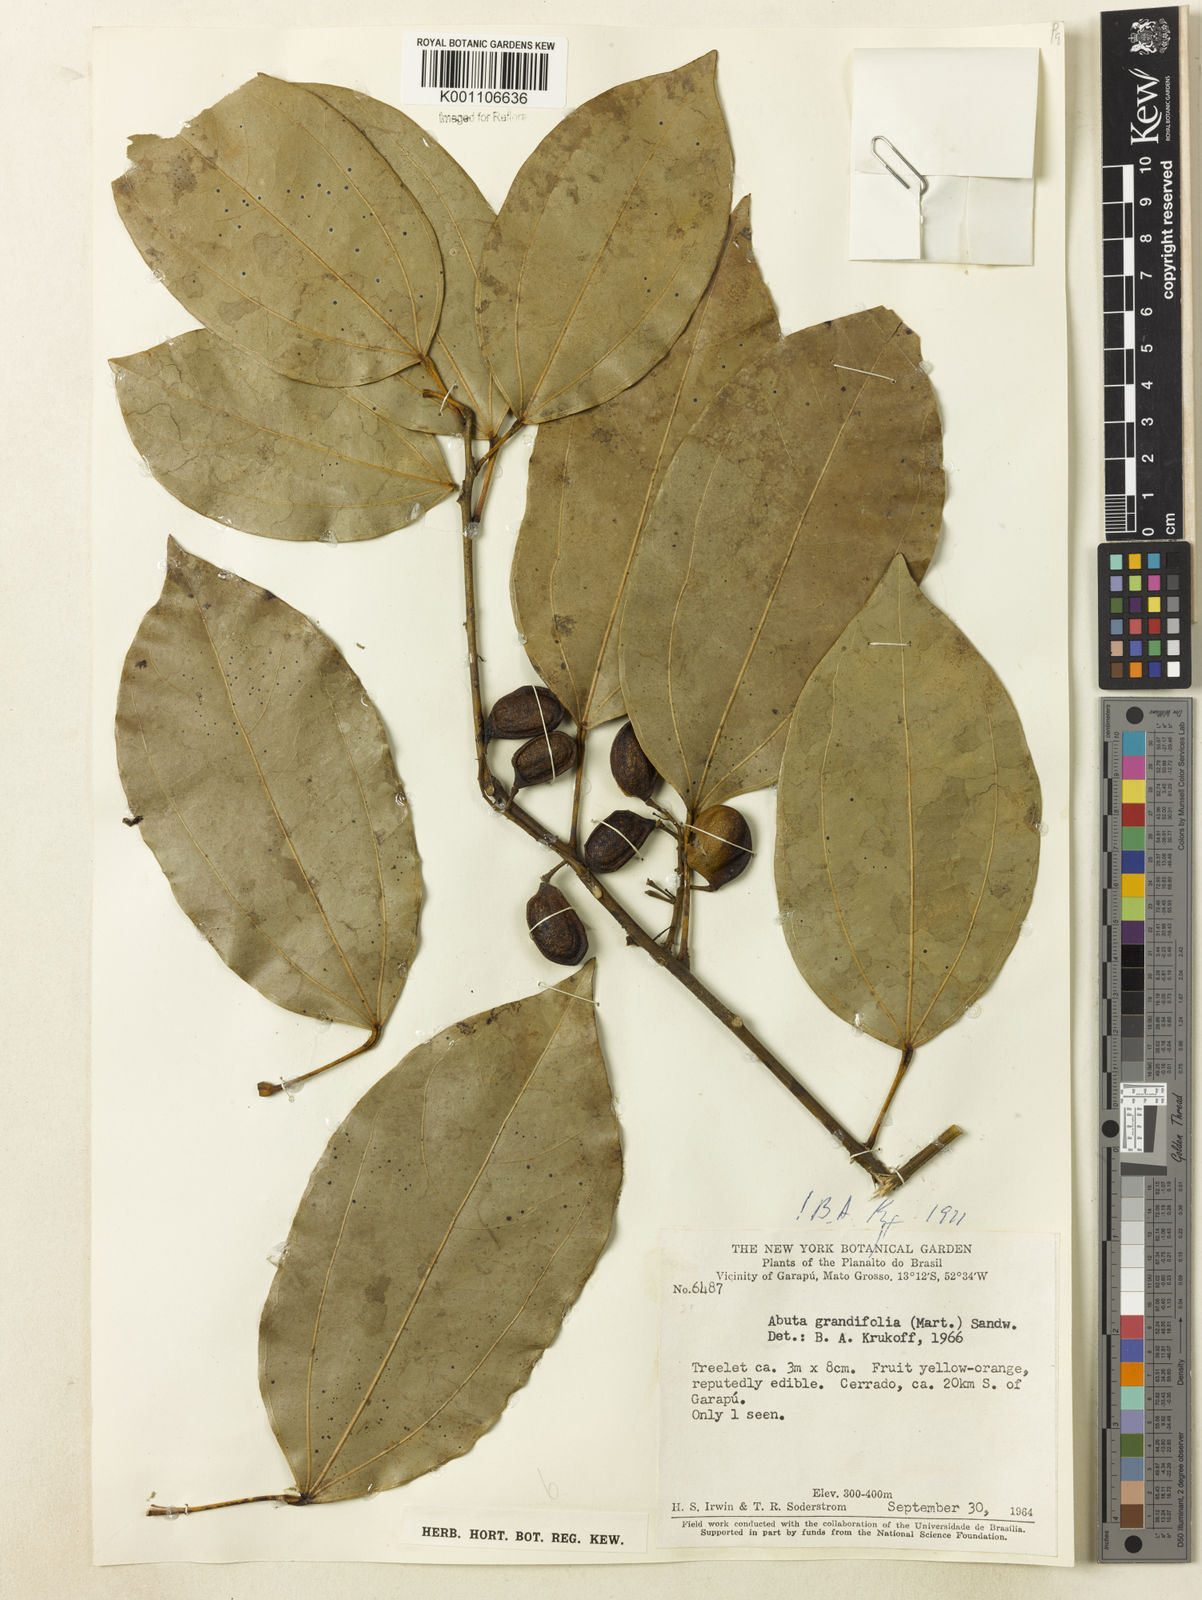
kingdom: Plantae
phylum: Tracheophyta
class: Magnoliopsida
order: Ranunculales
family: Menispermaceae
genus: Abuta
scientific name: Abuta grandifolia
